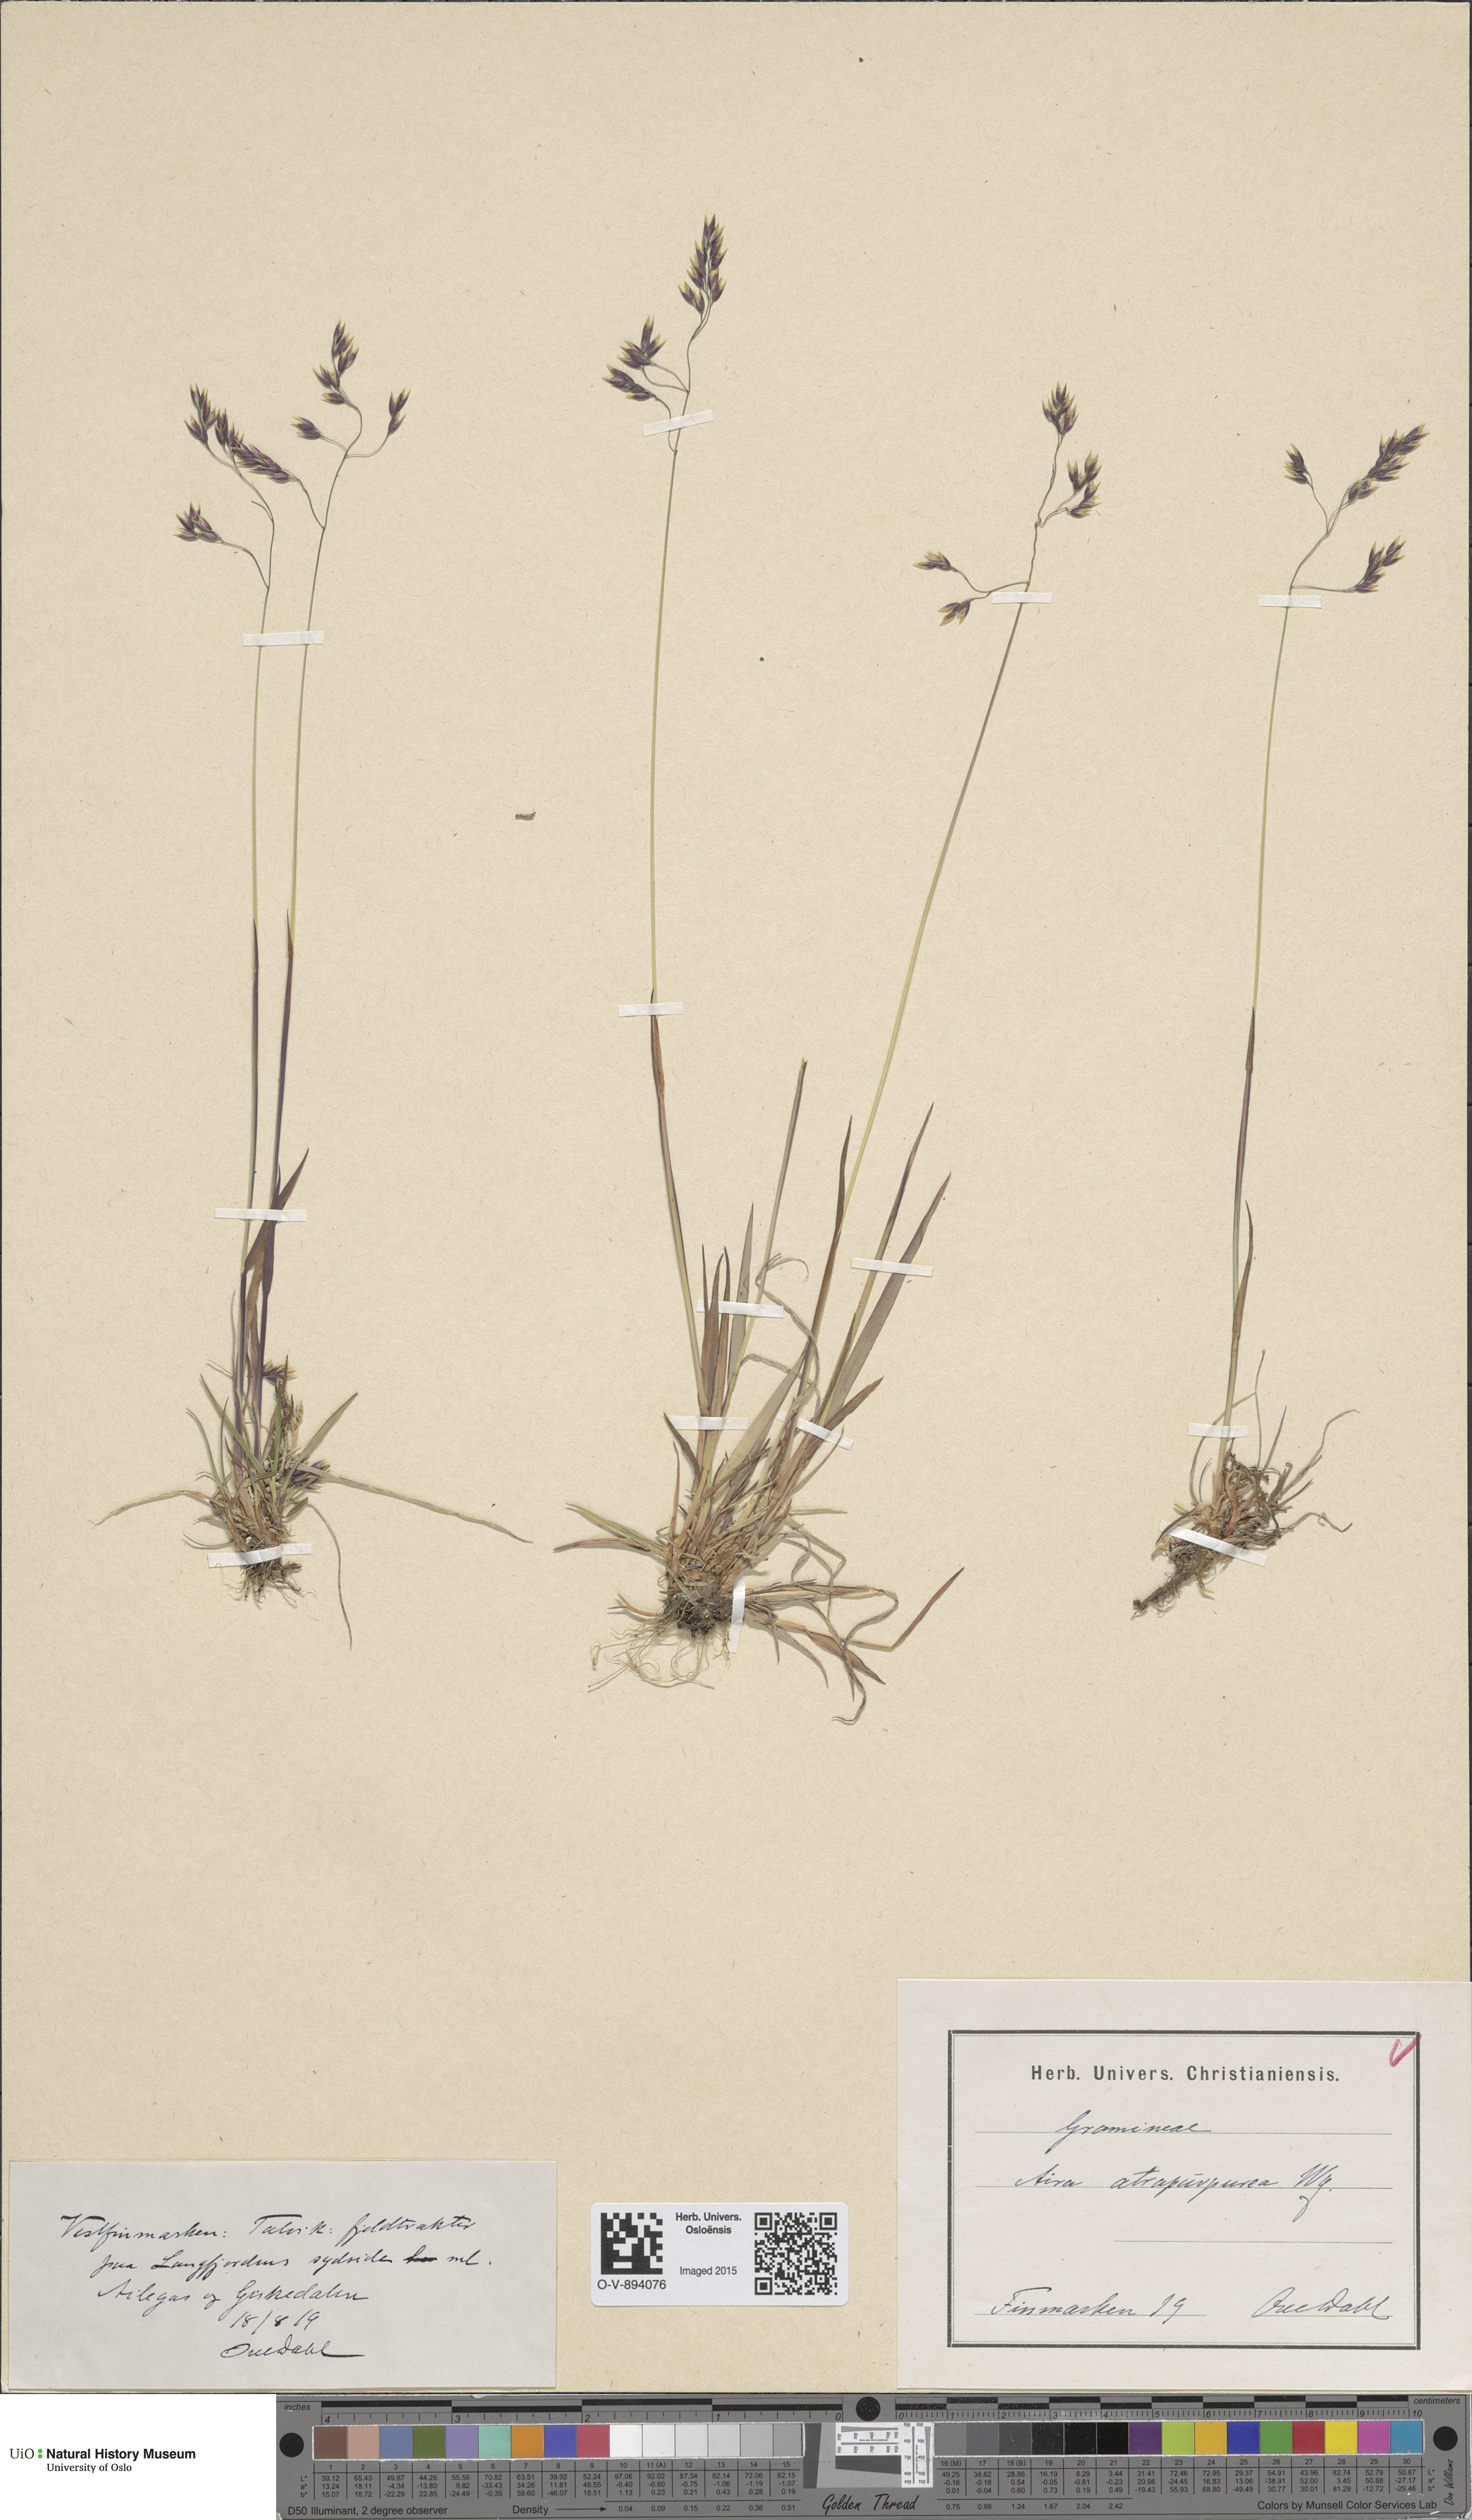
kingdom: Plantae
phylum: Tracheophyta
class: Liliopsida
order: Poales
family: Poaceae
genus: Vahlodea
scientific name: Vahlodea atropurpurea
